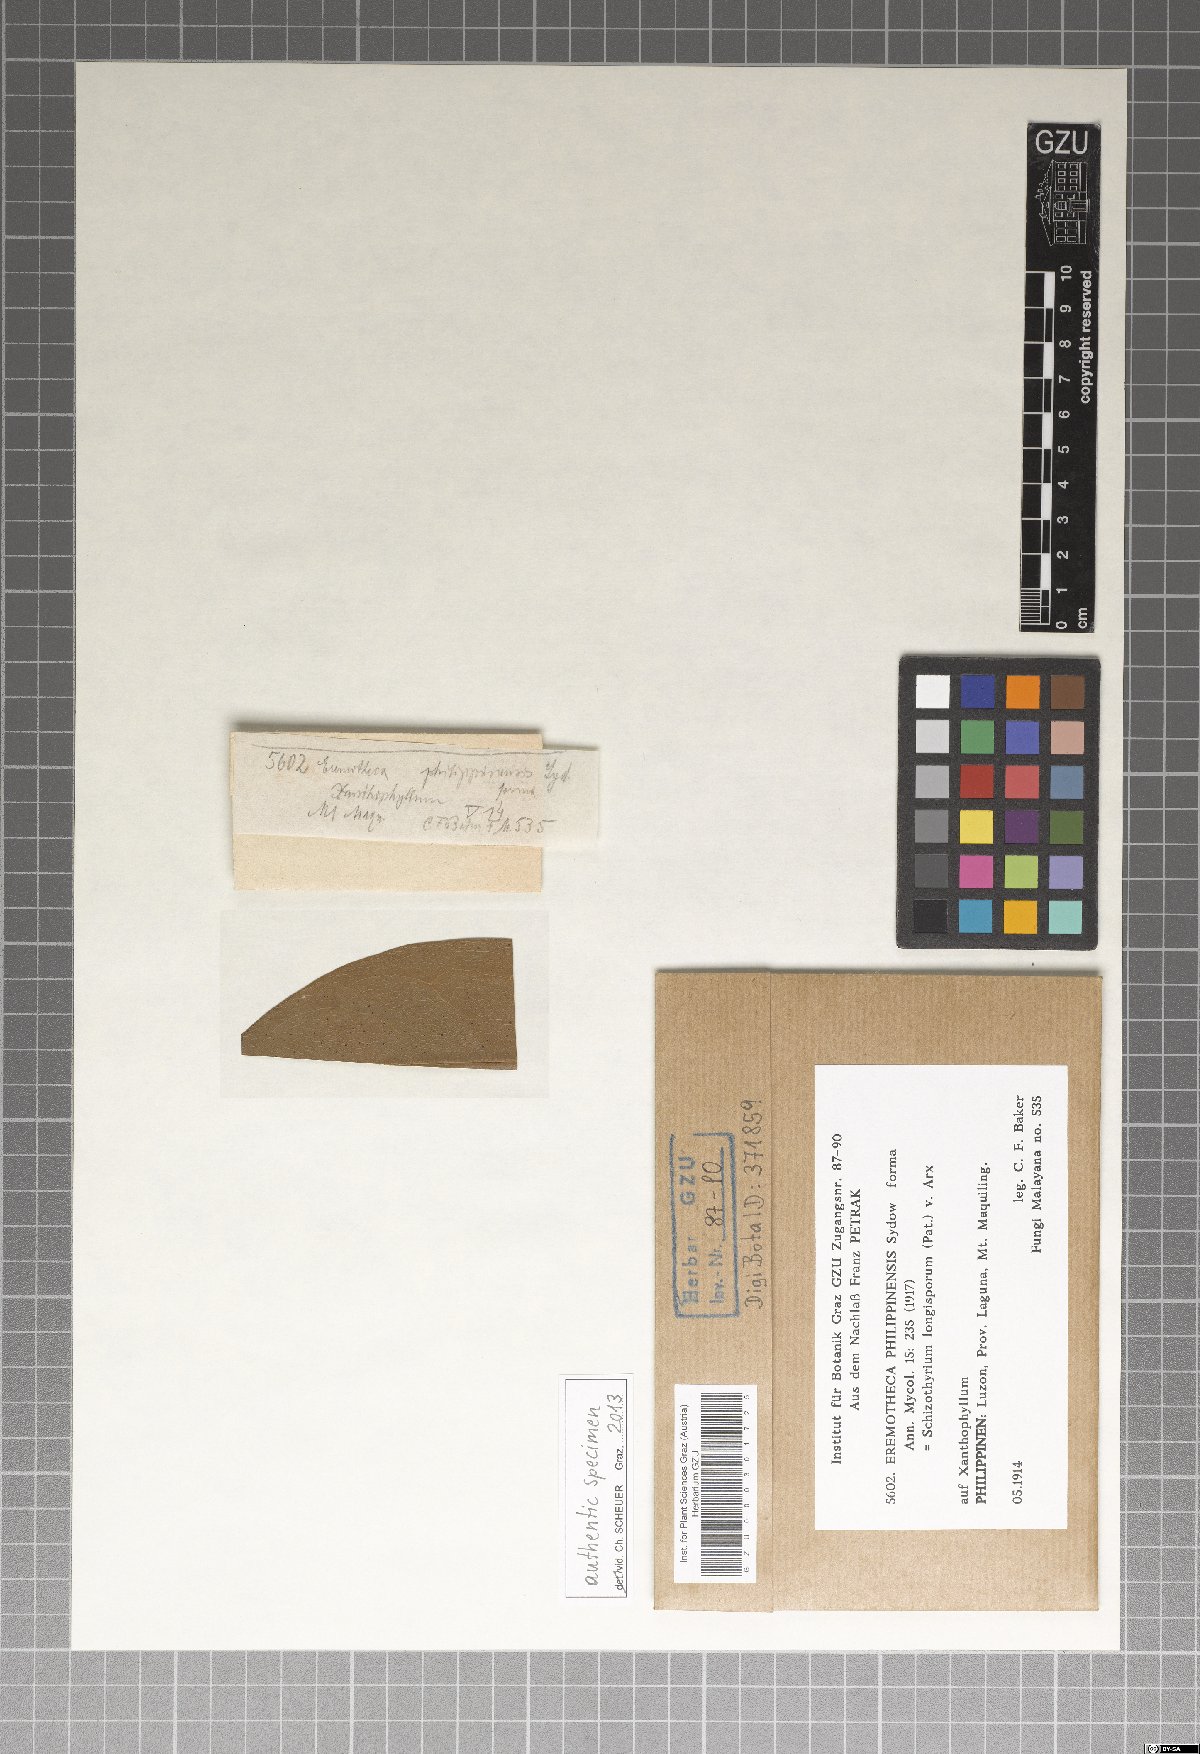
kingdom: Fungi
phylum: Ascomycota
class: Dothideomycetes
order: Mycosphaerellales
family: Schizothyriaceae
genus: Eremotheca
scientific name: Eremotheca philippinensis
